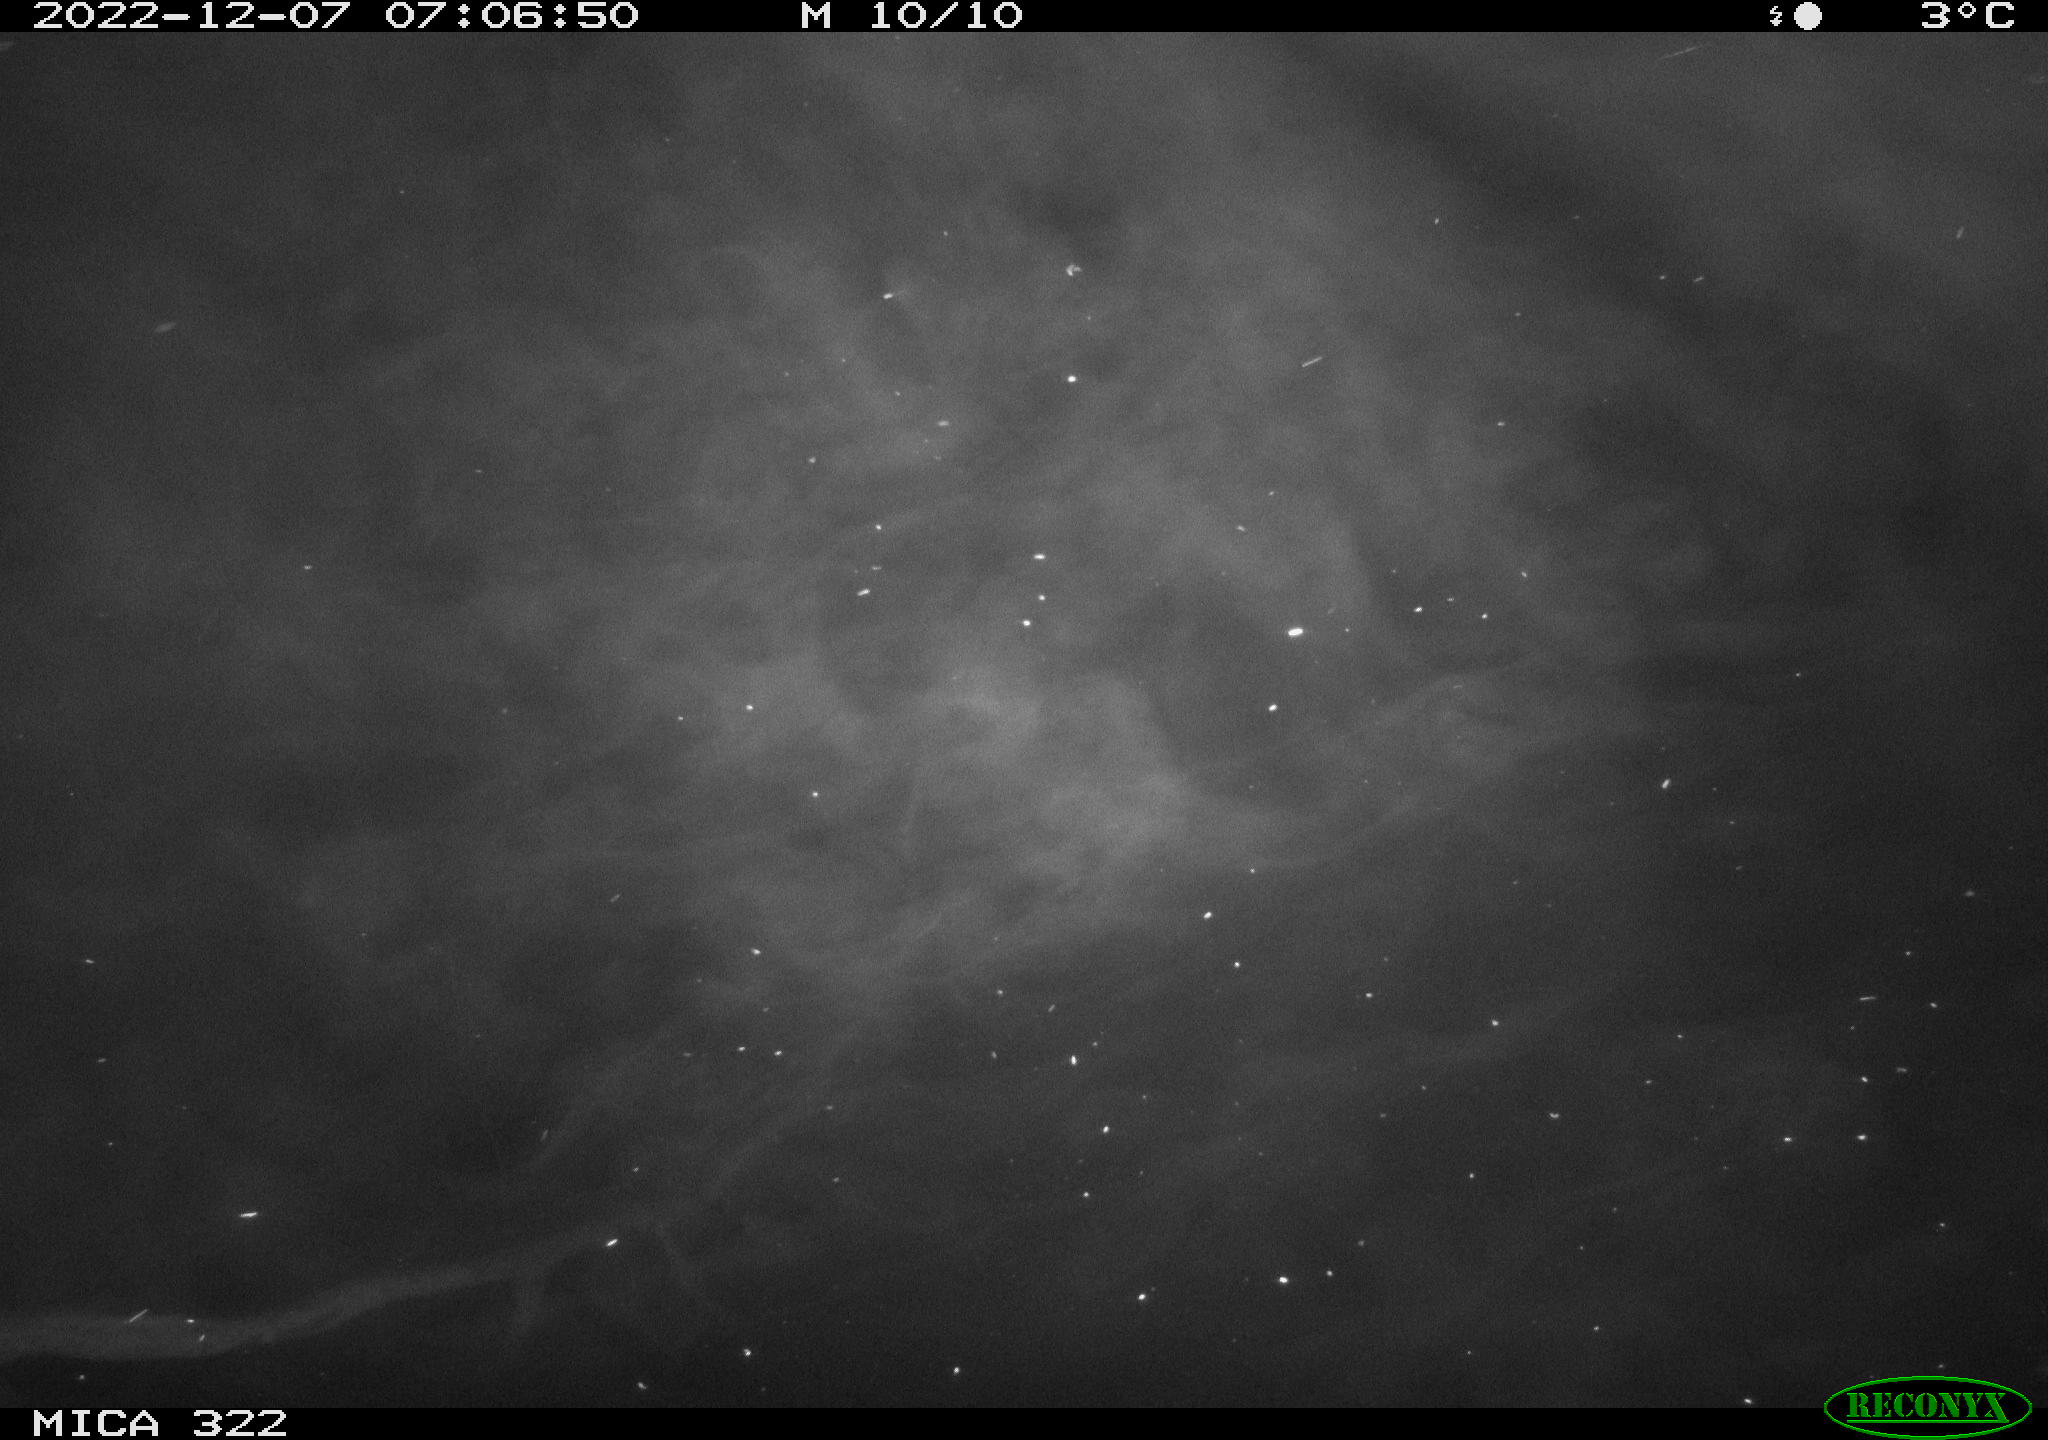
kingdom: Animalia
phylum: Chordata
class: Aves
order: Gruiformes
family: Rallidae
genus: Gallinula
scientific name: Gallinula chloropus
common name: Common moorhen
